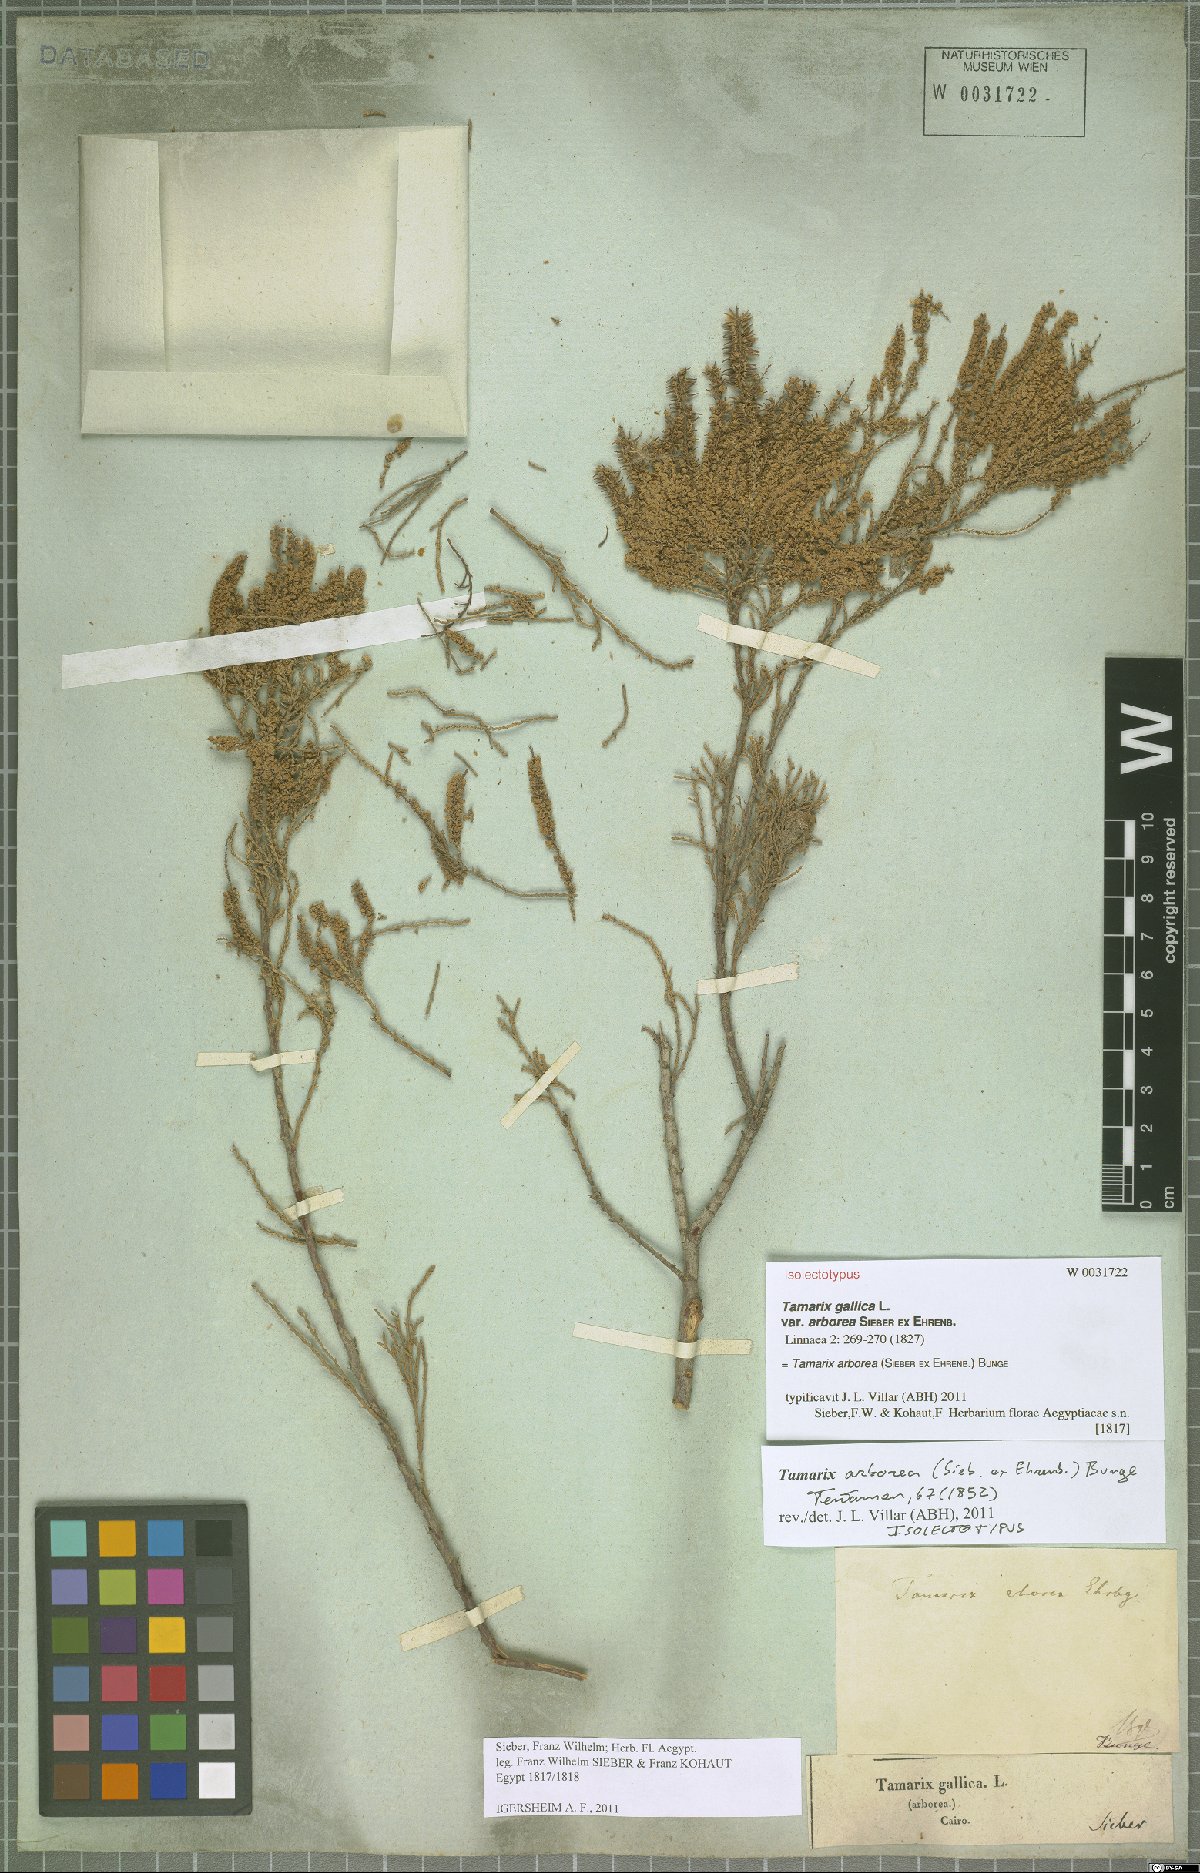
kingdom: Plantae
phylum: Tracheophyta
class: Magnoliopsida
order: Caryophyllales
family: Tamaricaceae
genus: Tamarix
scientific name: Tamarix arborea
